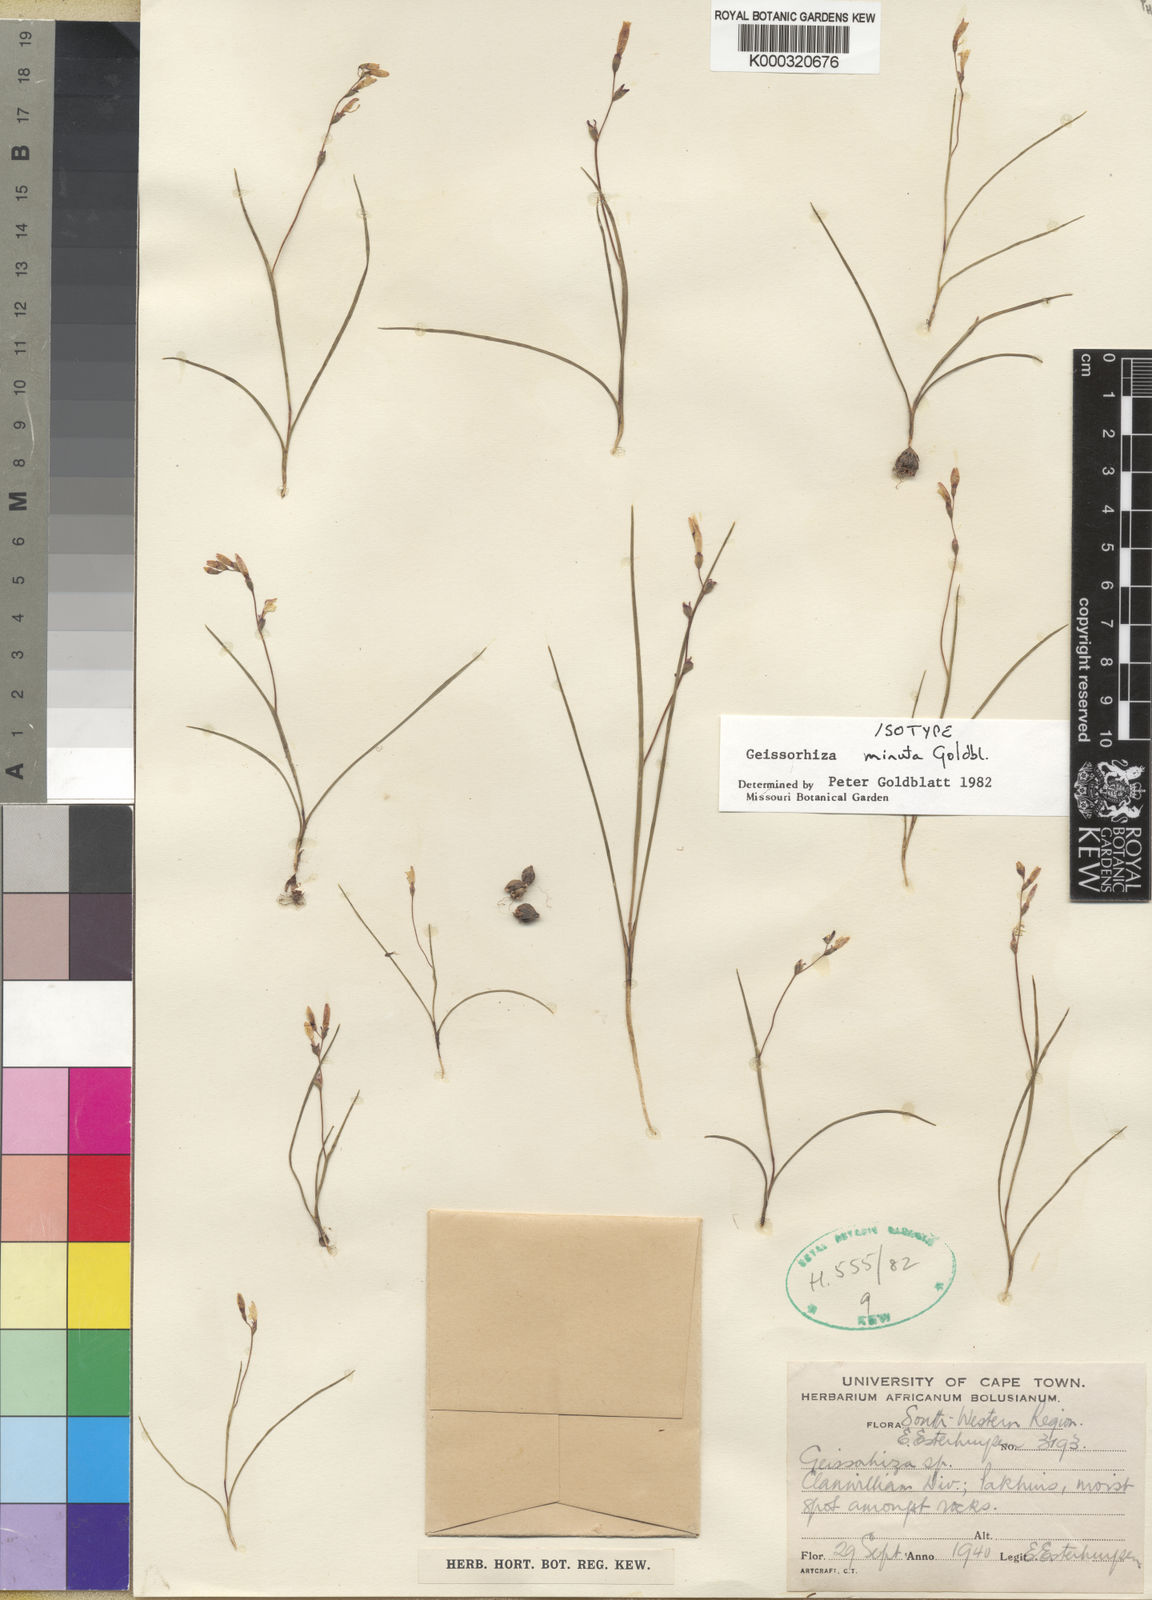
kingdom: Plantae
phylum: Tracheophyta
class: Liliopsida
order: Asparagales
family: Iridaceae
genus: Geissorhiza
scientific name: Geissorhiza minuta
